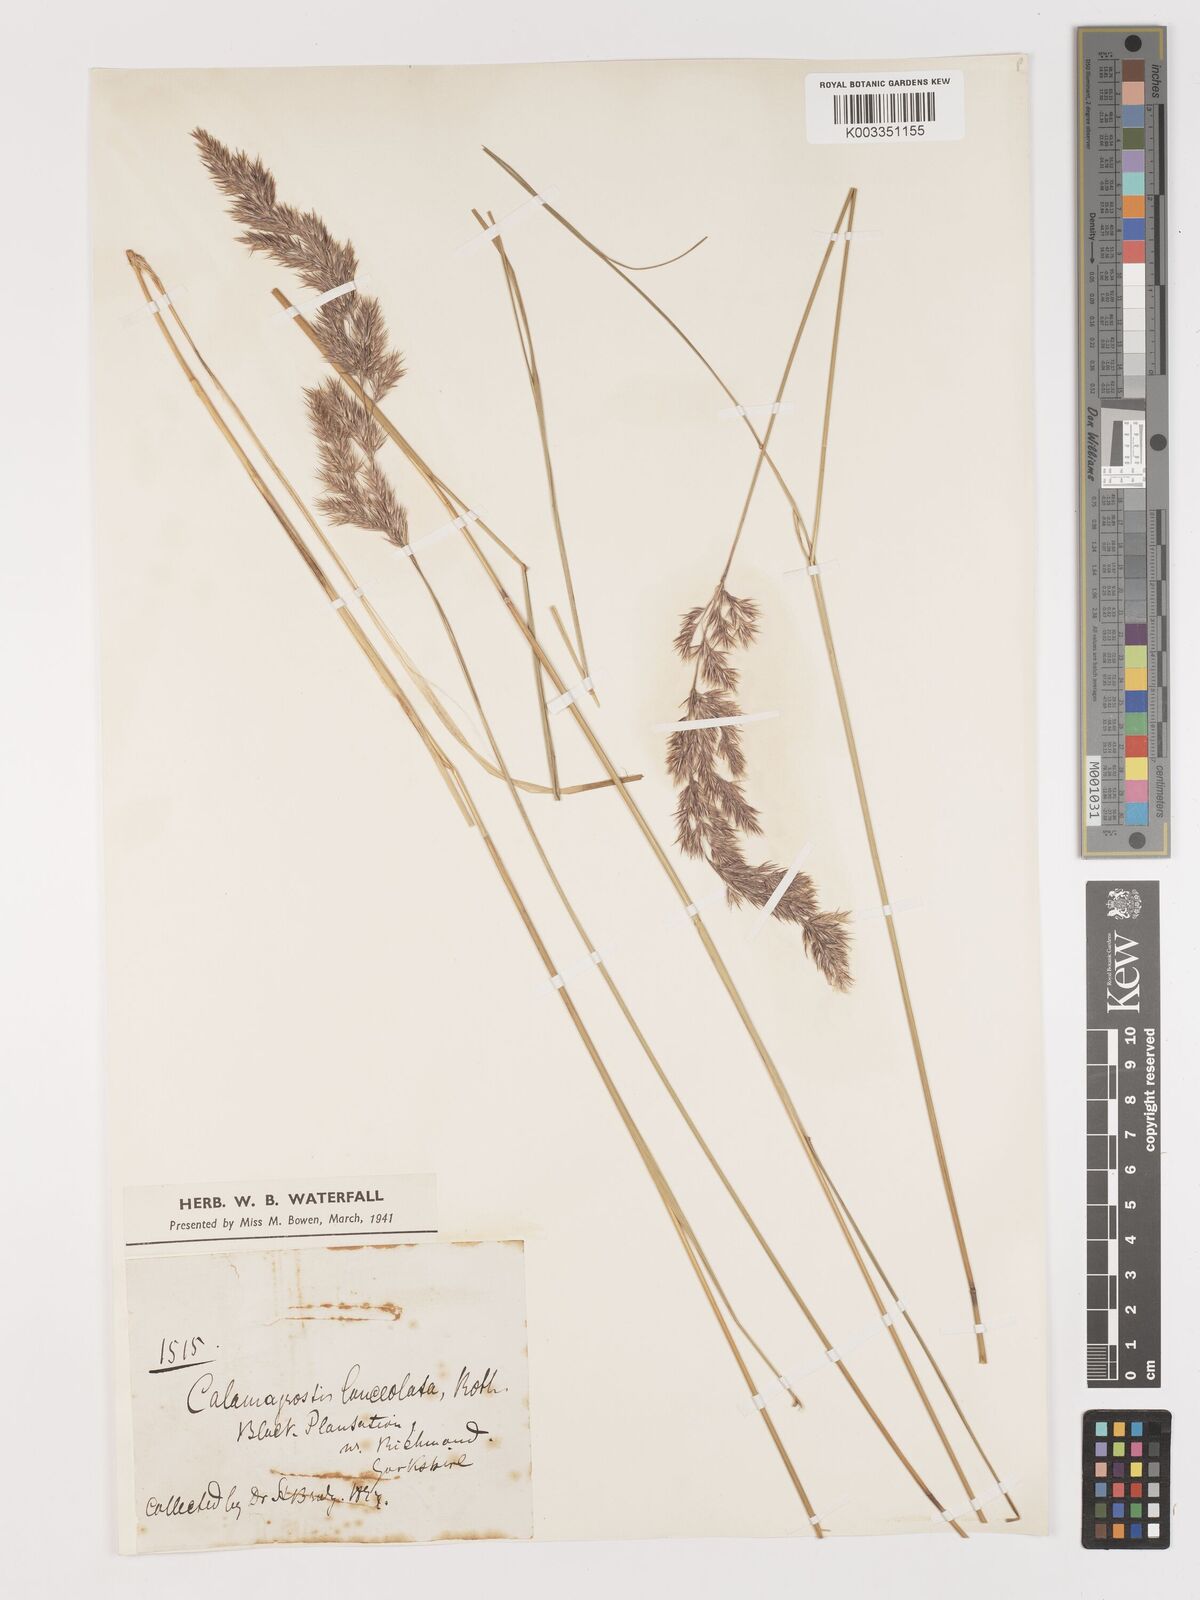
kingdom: Plantae
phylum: Tracheophyta
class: Liliopsida
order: Poales
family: Poaceae
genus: Calamagrostis
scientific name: Calamagrostis
